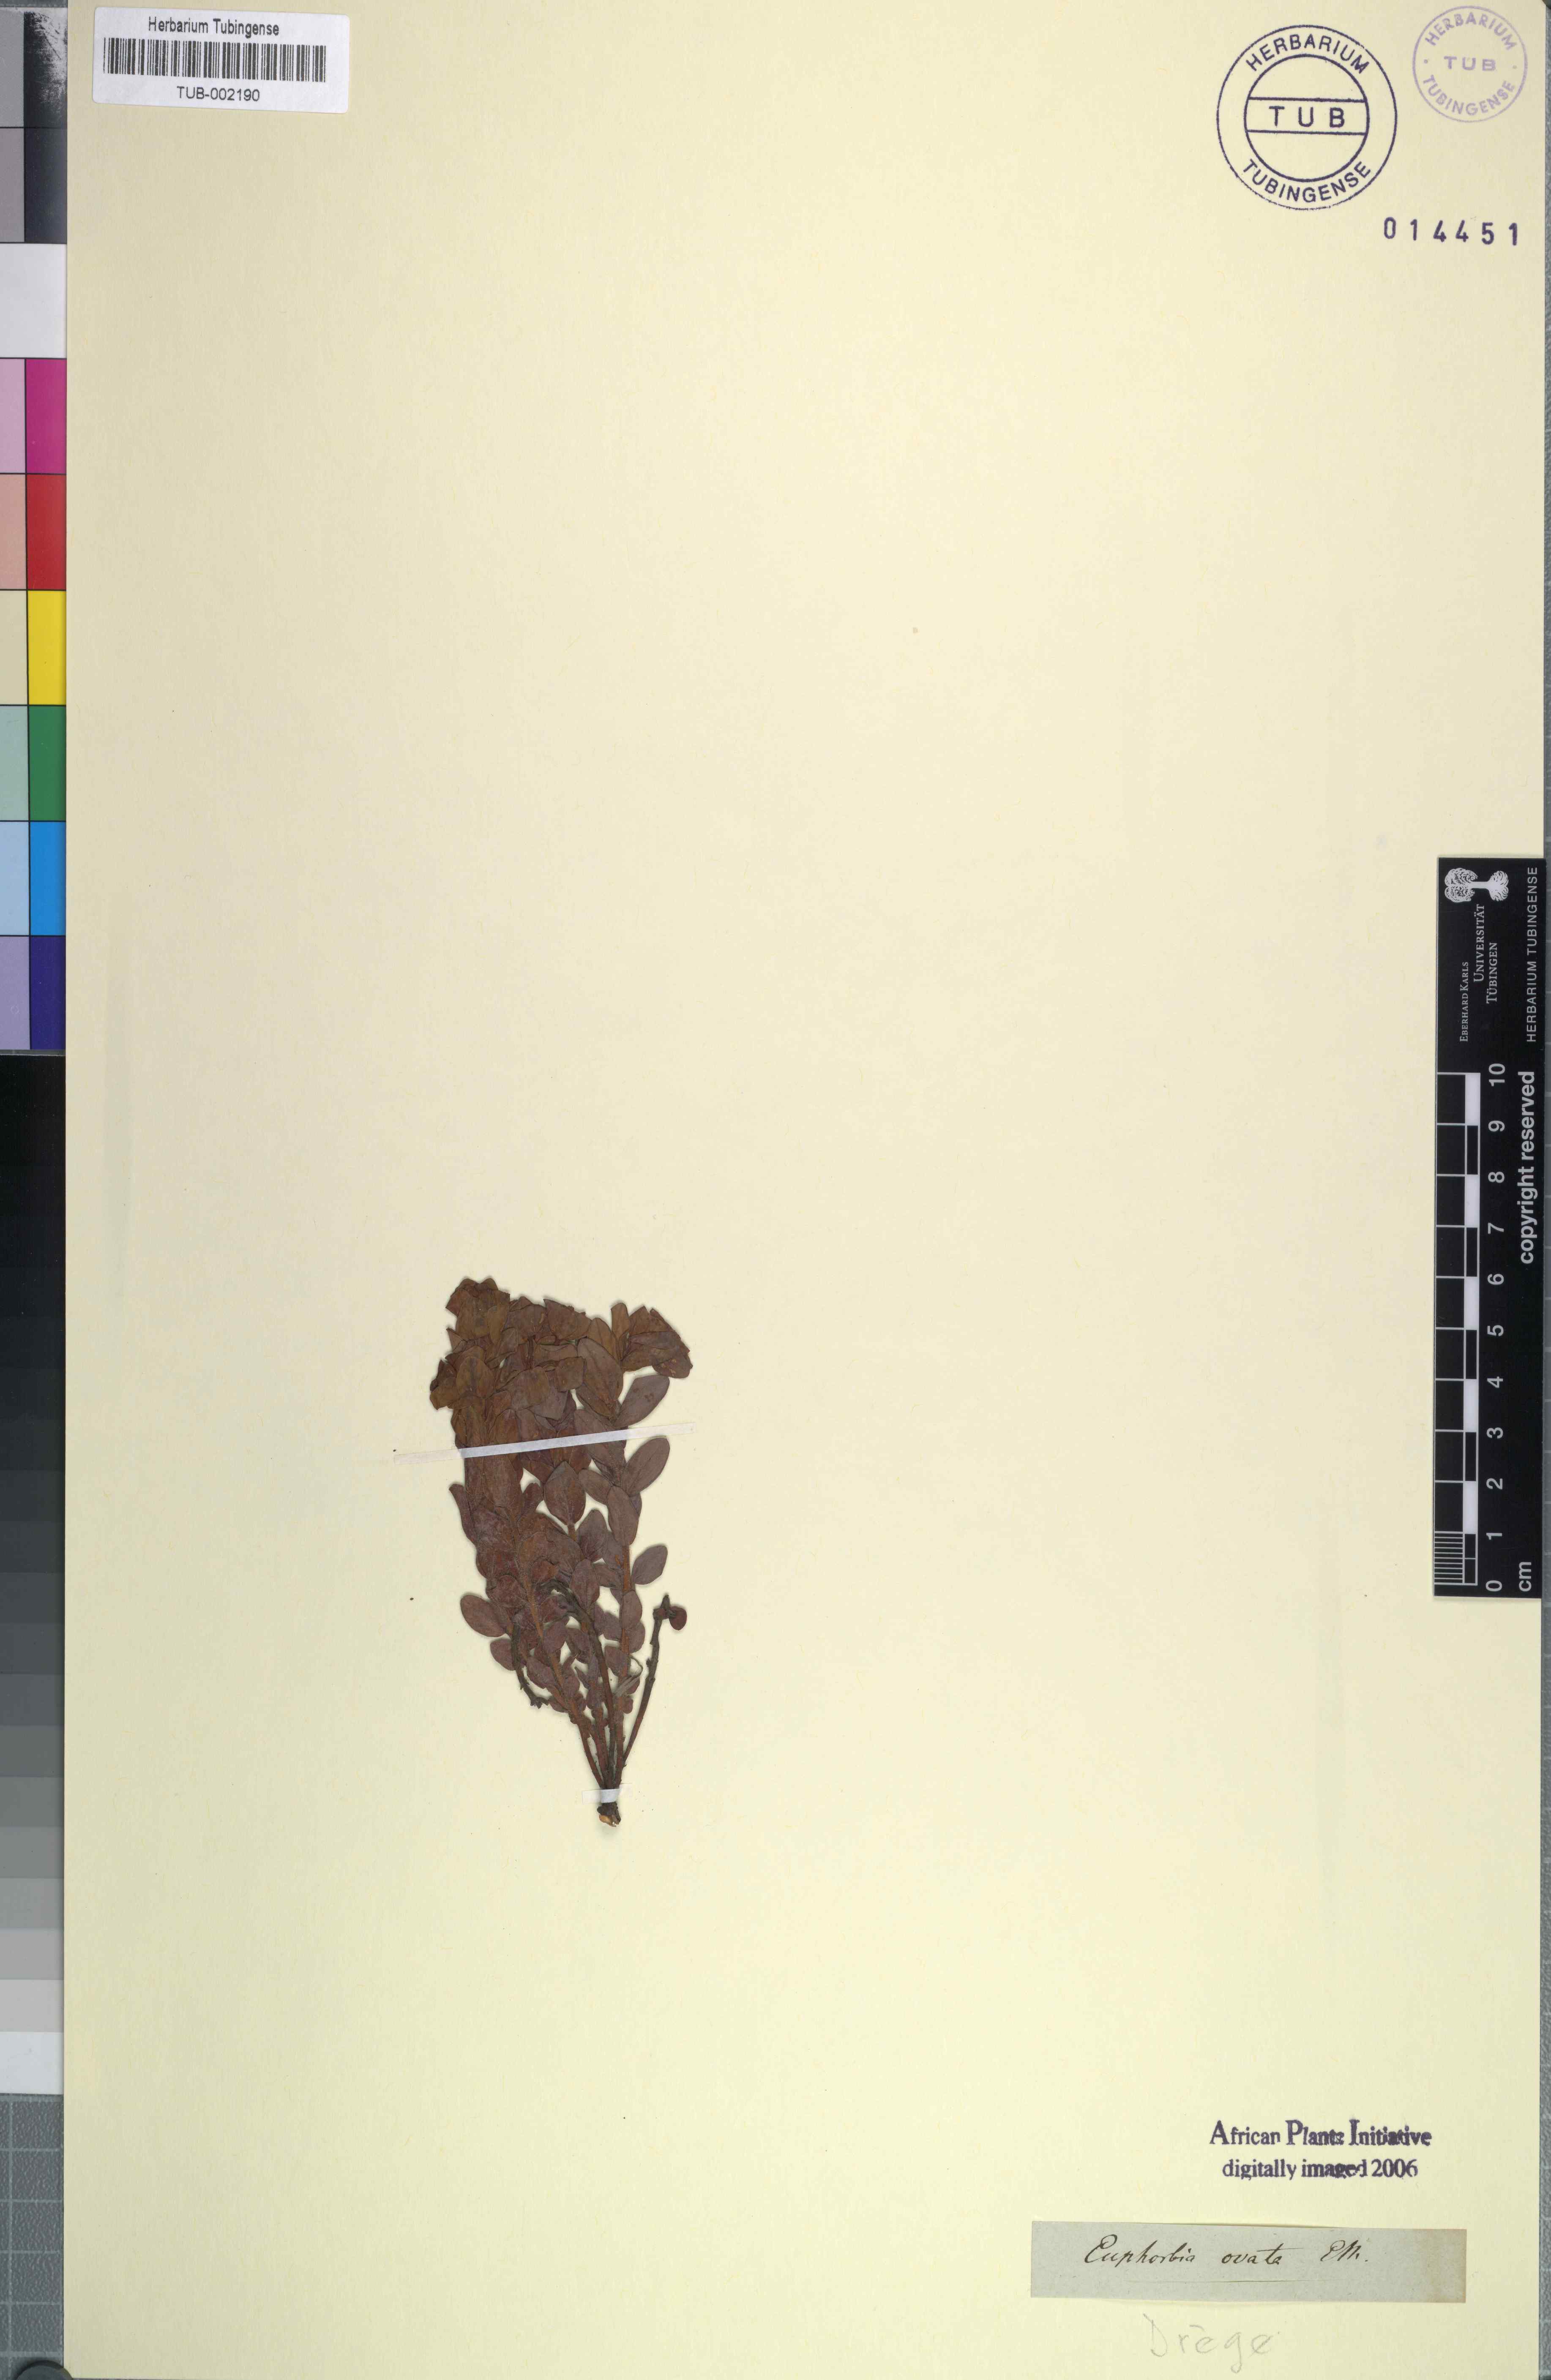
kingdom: Plantae
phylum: Tracheophyta
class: Magnoliopsida
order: Malpighiales
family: Euphorbiaceae
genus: Euphorbia
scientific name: Euphorbia sclerophylla
